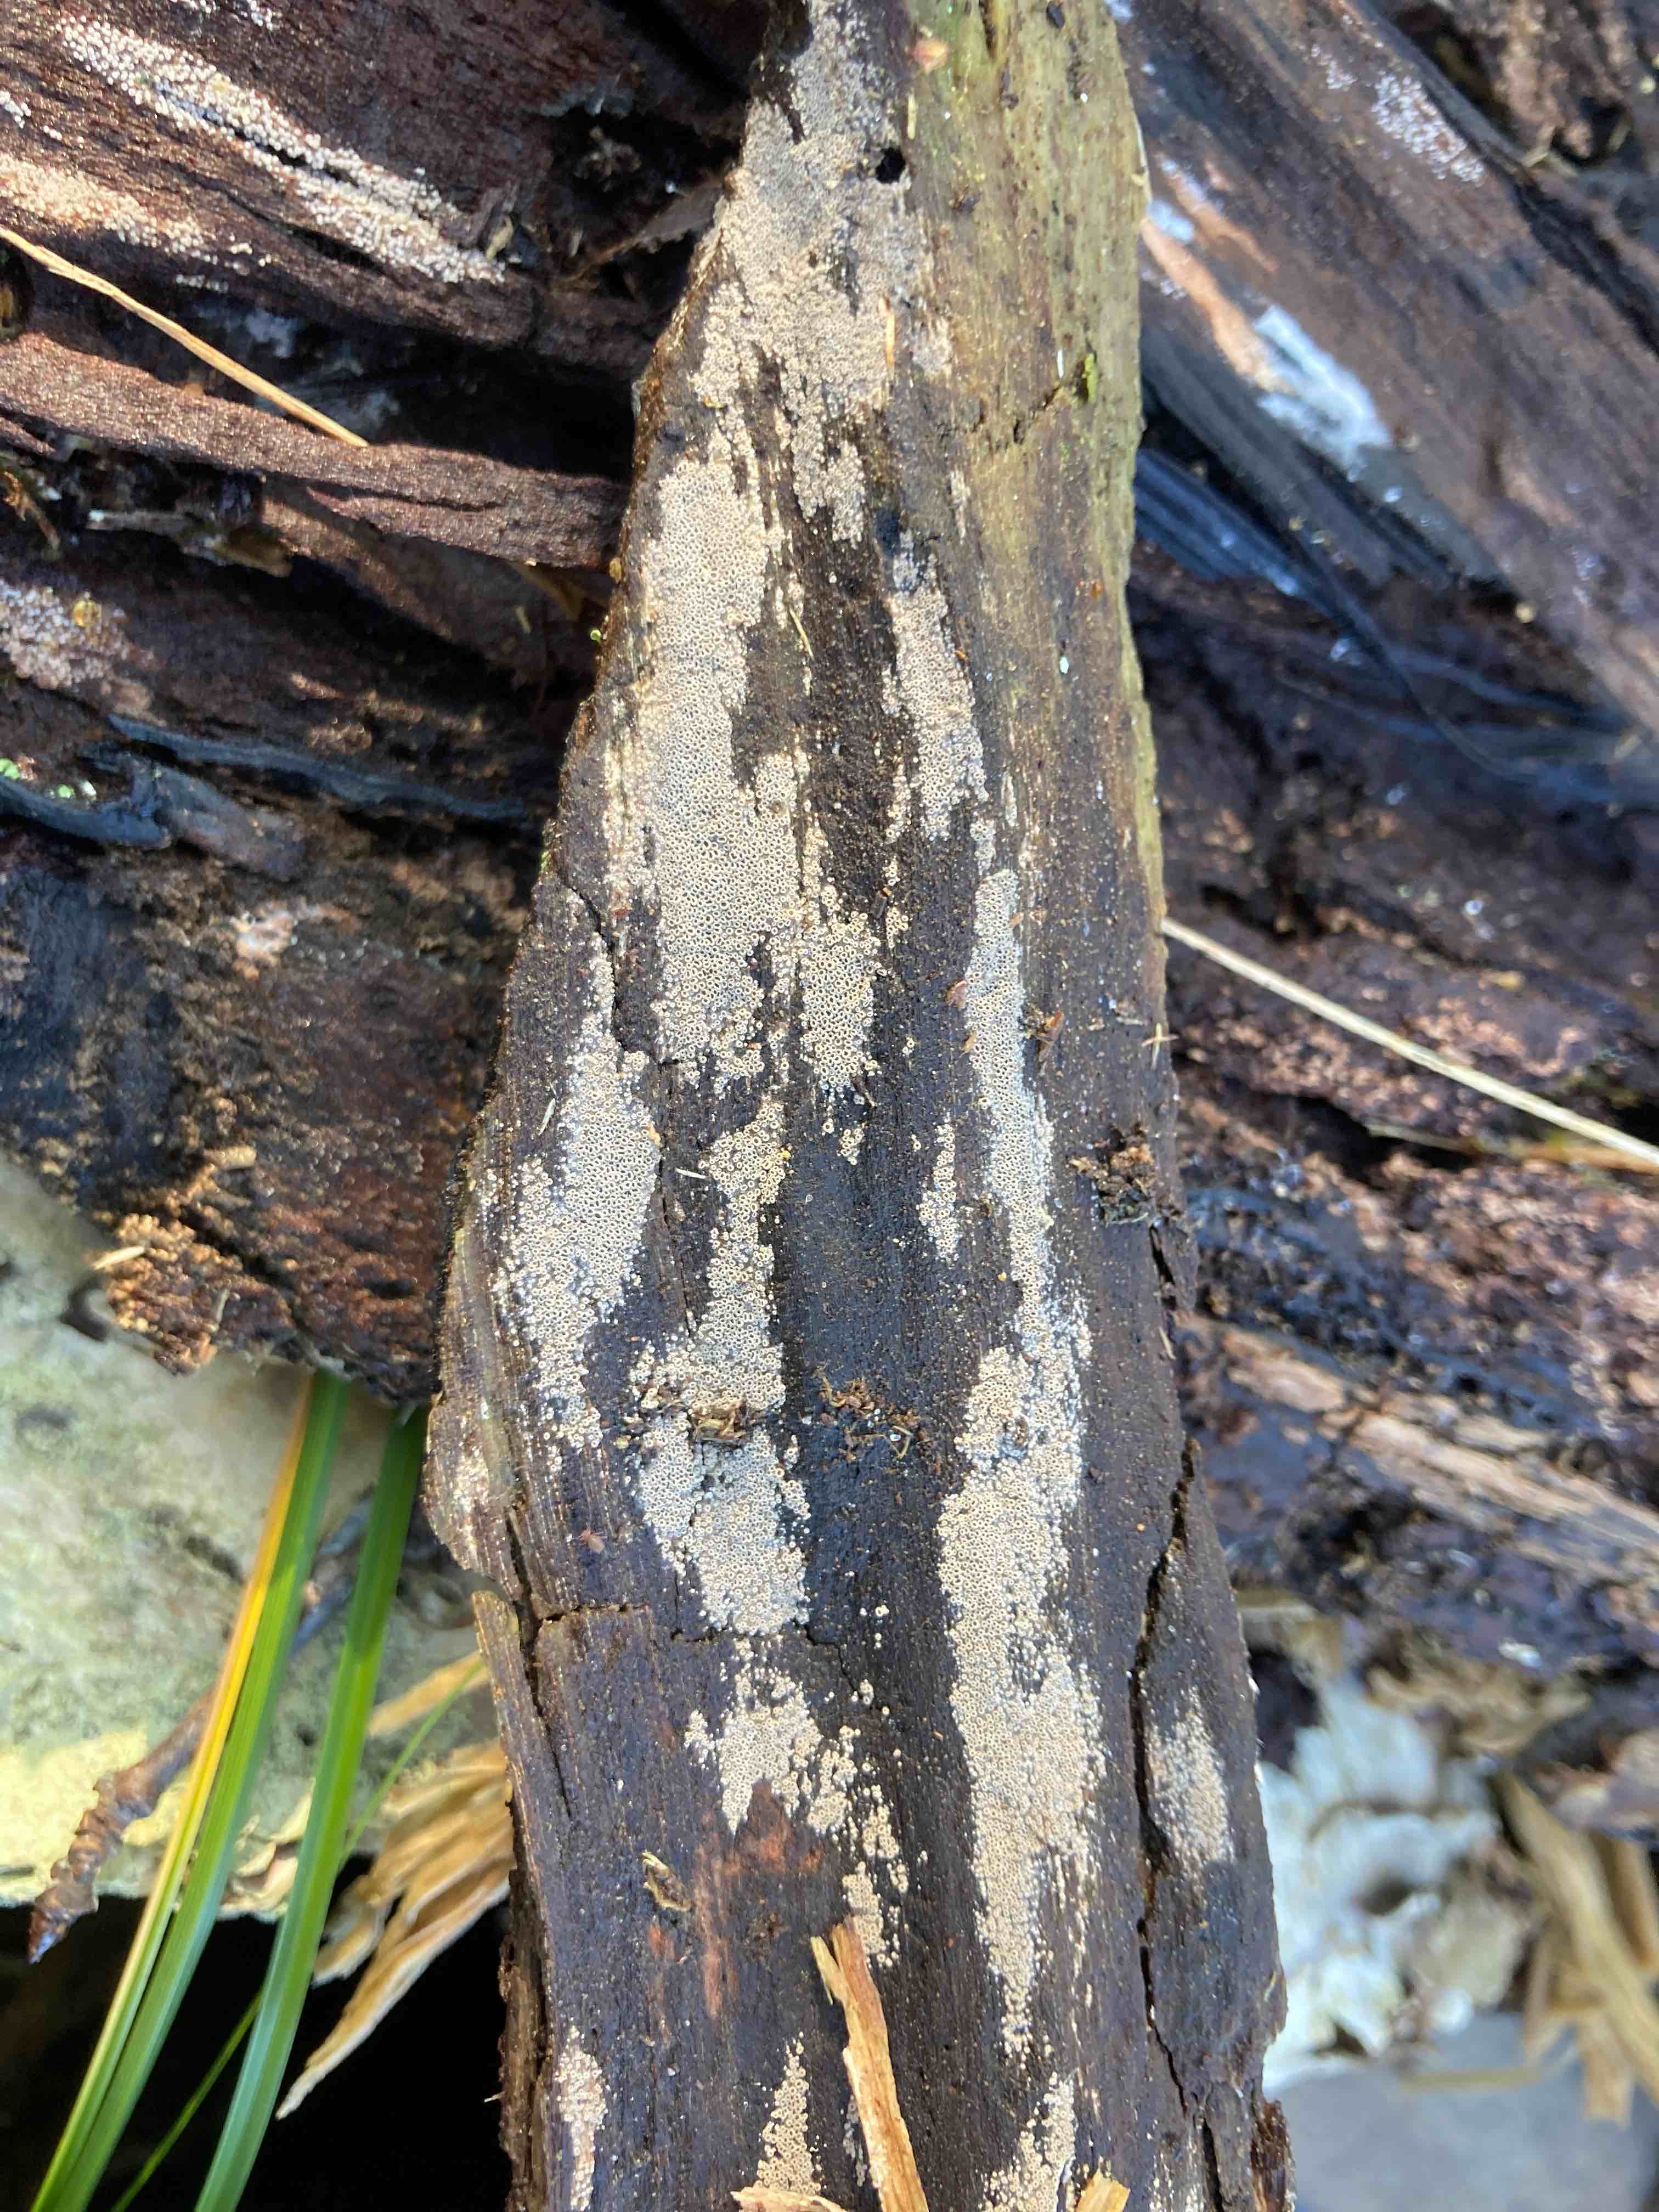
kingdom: Fungi
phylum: Basidiomycota
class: Agaricomycetes
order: Agaricales
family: Pleurotaceae
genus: Resupinatus
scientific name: Resupinatus poriaeformis
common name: tæpperør
